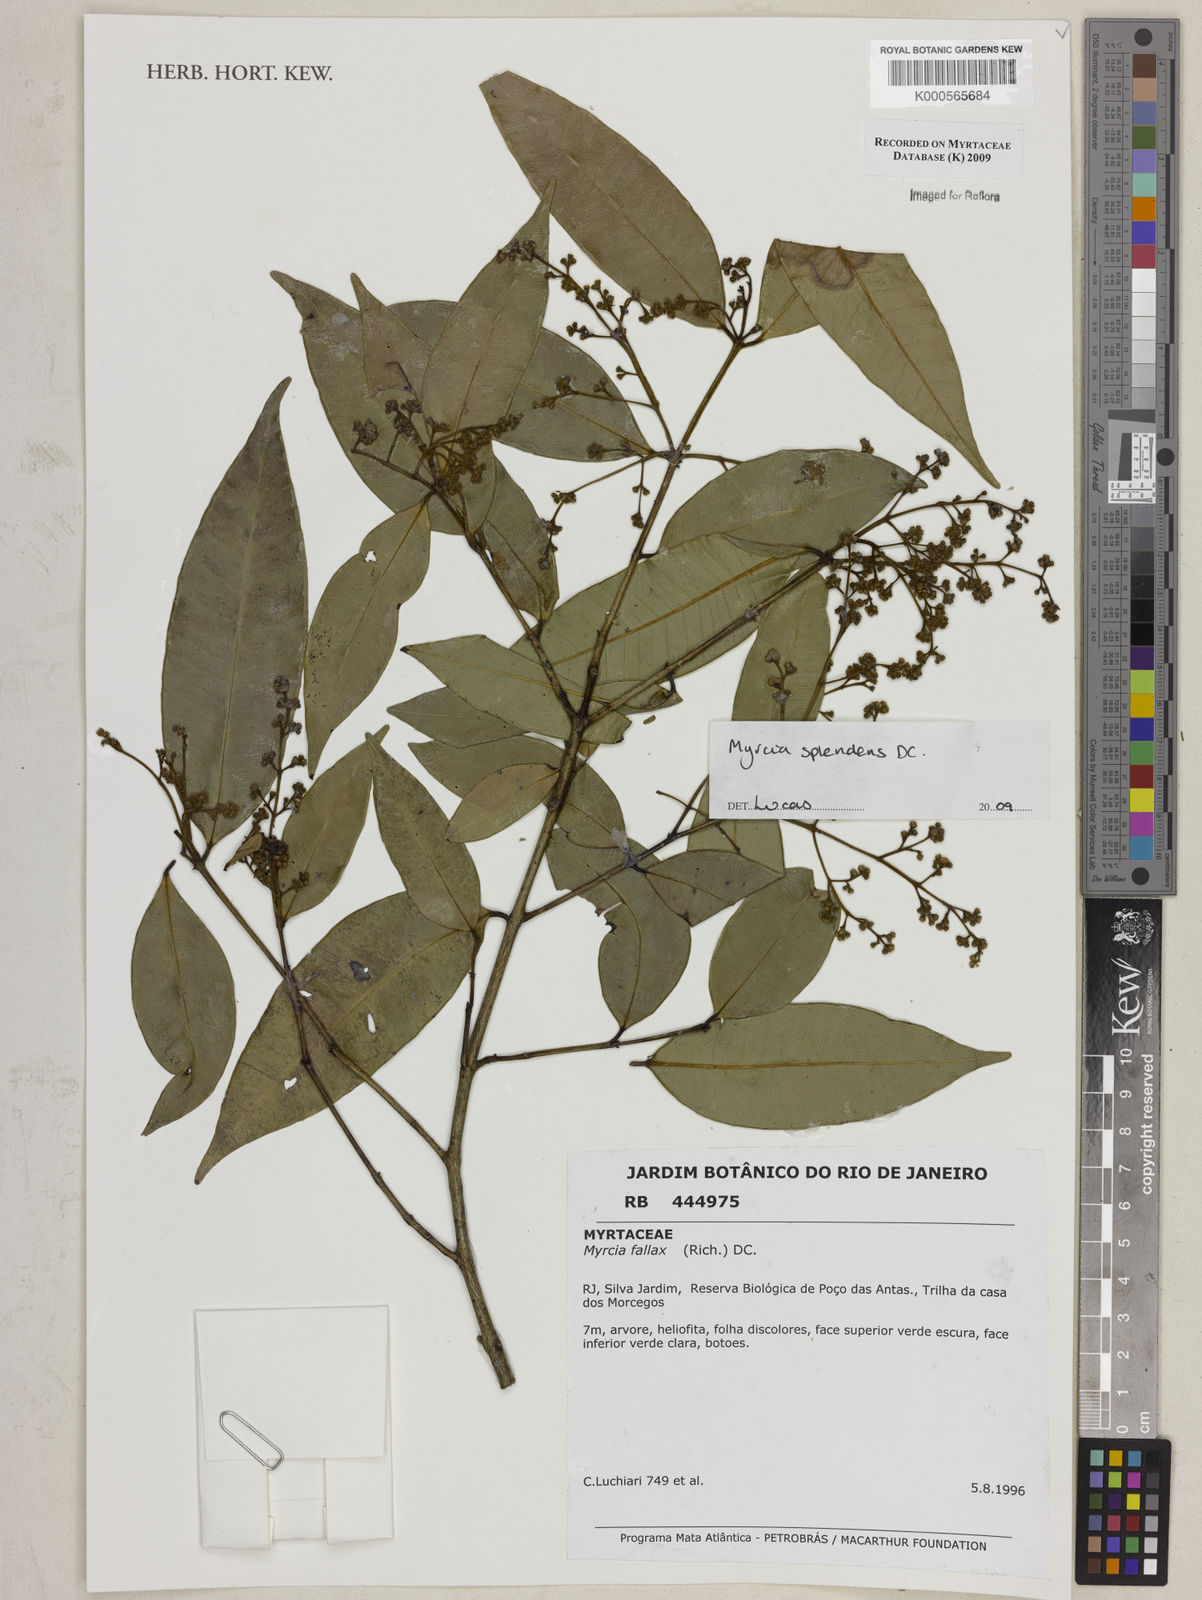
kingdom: Plantae
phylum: Tracheophyta
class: Magnoliopsida
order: Myrtales
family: Myrtaceae
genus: Myrcia
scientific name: Myrcia splendens
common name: Surinam cherry
